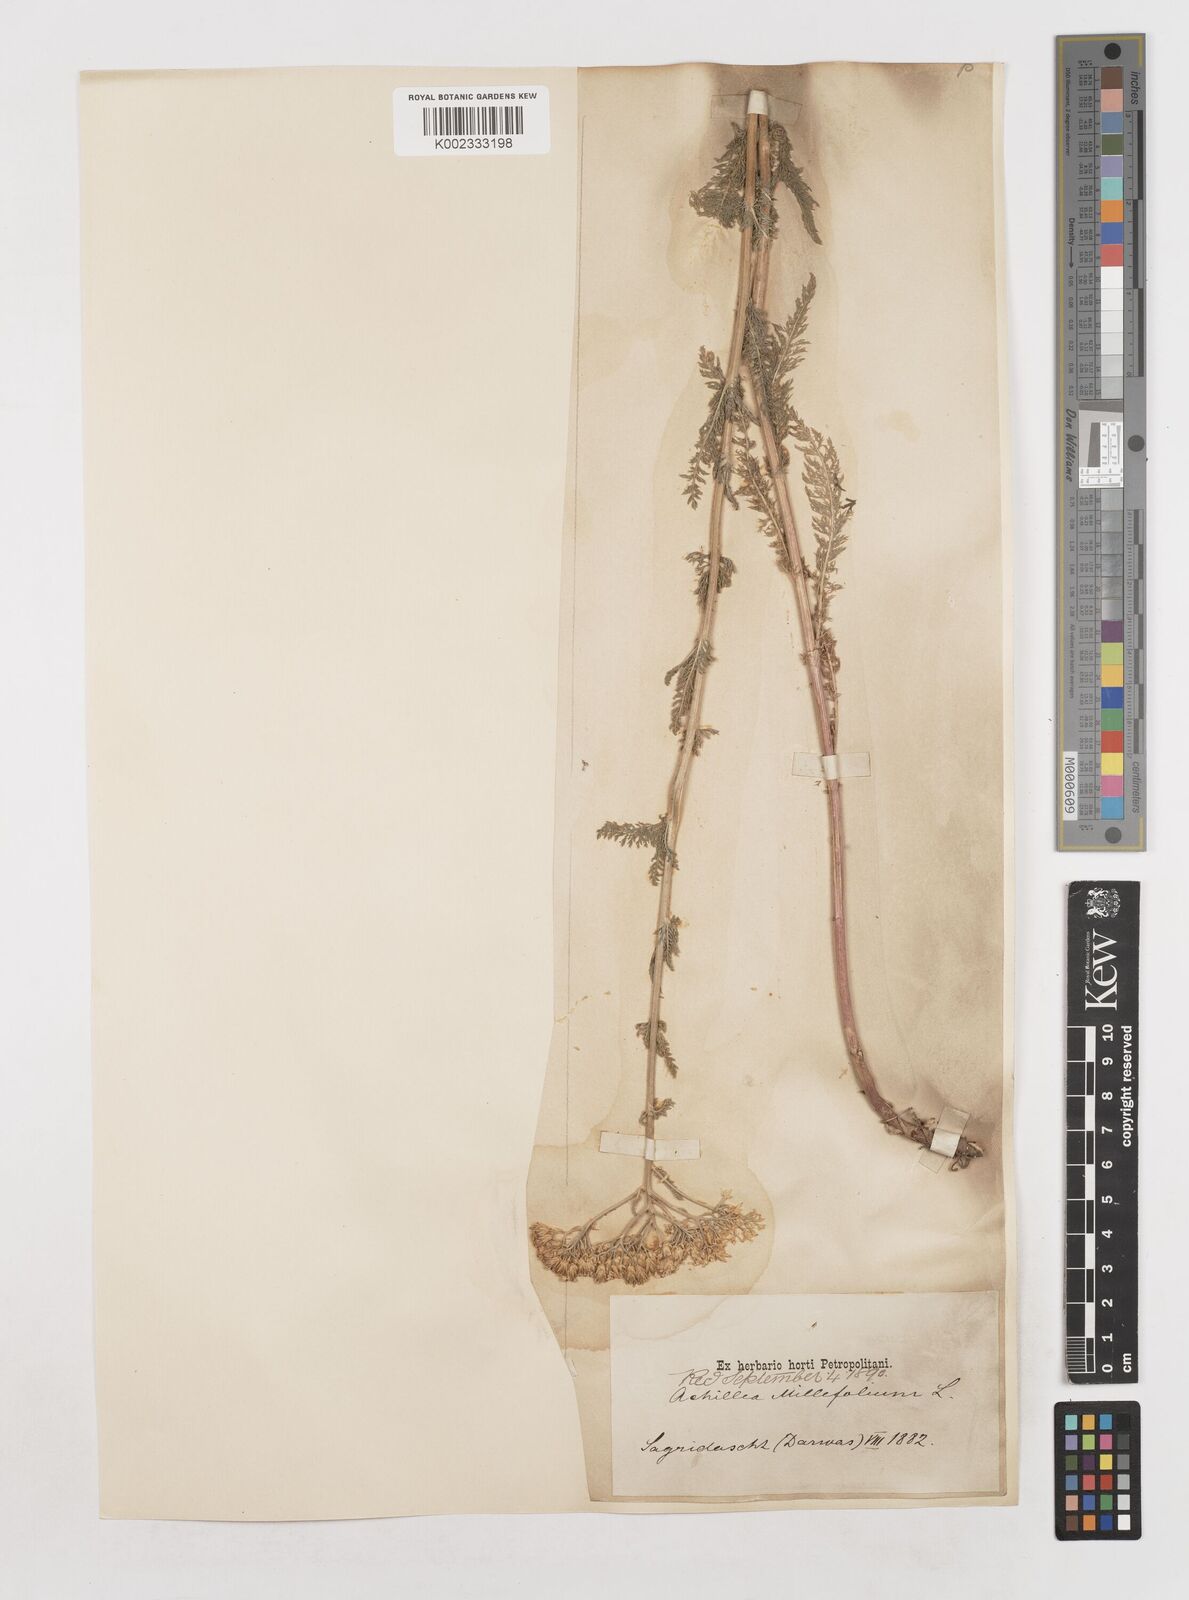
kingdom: Plantae
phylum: Tracheophyta
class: Magnoliopsida
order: Asterales
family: Asteraceae
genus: Achillea
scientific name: Achillea millefolium
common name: Yarrow
